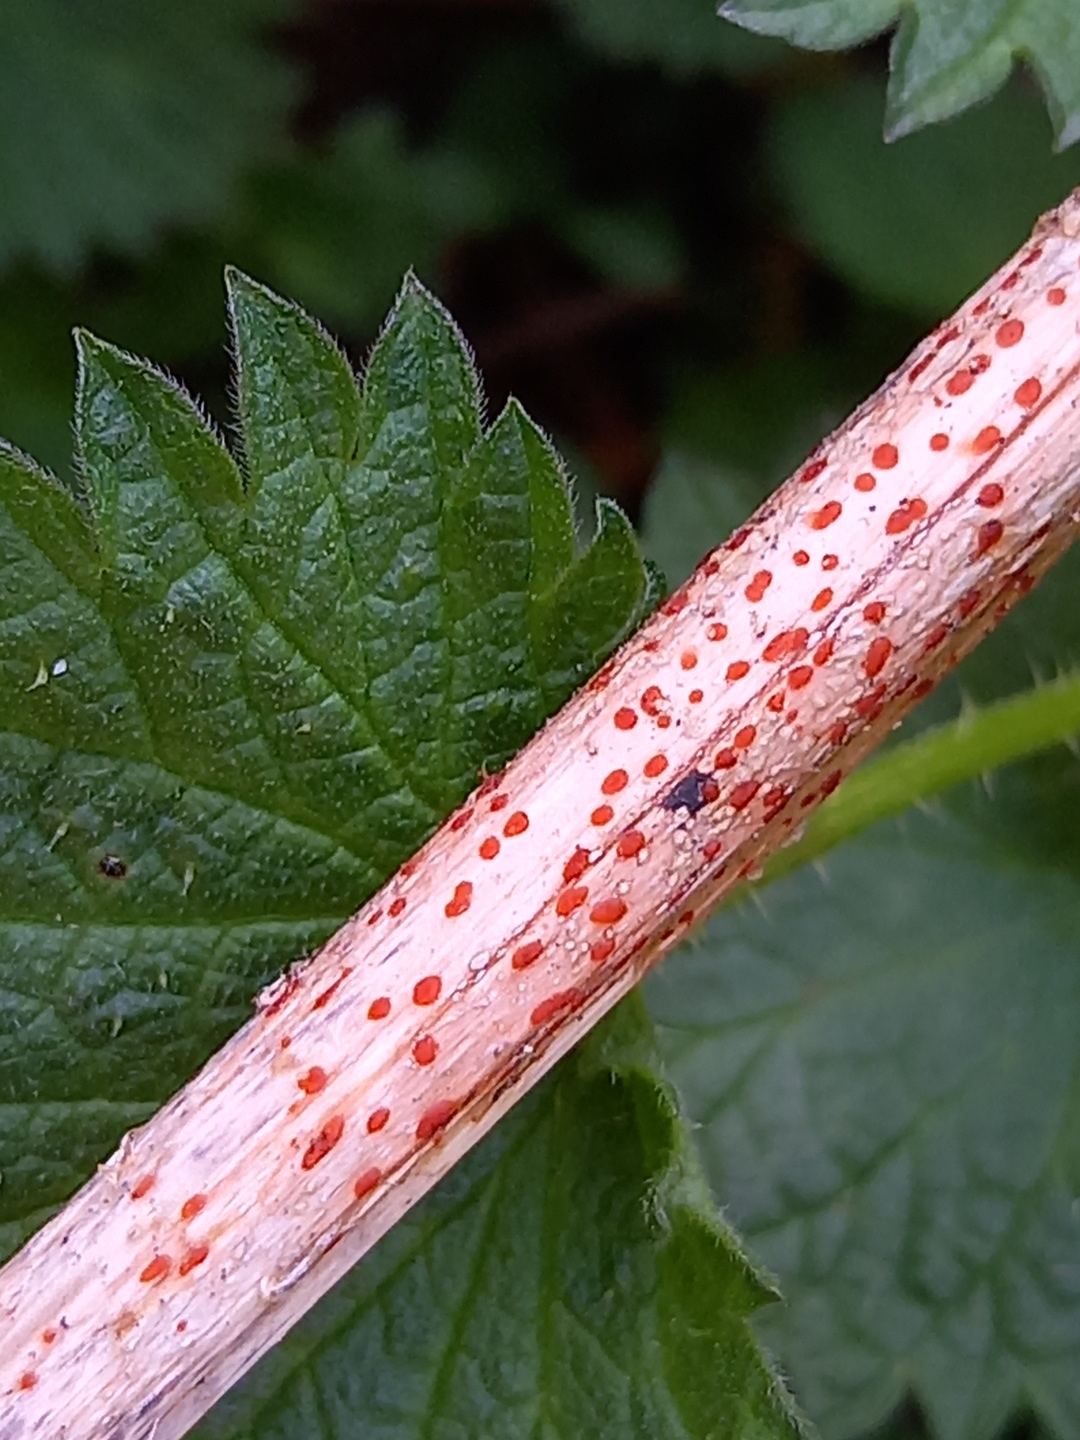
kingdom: Fungi
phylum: Ascomycota
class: Leotiomycetes
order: Helotiales
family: Calloriaceae
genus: Calloria
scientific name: Calloria urticae
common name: nælde-orangeskive
